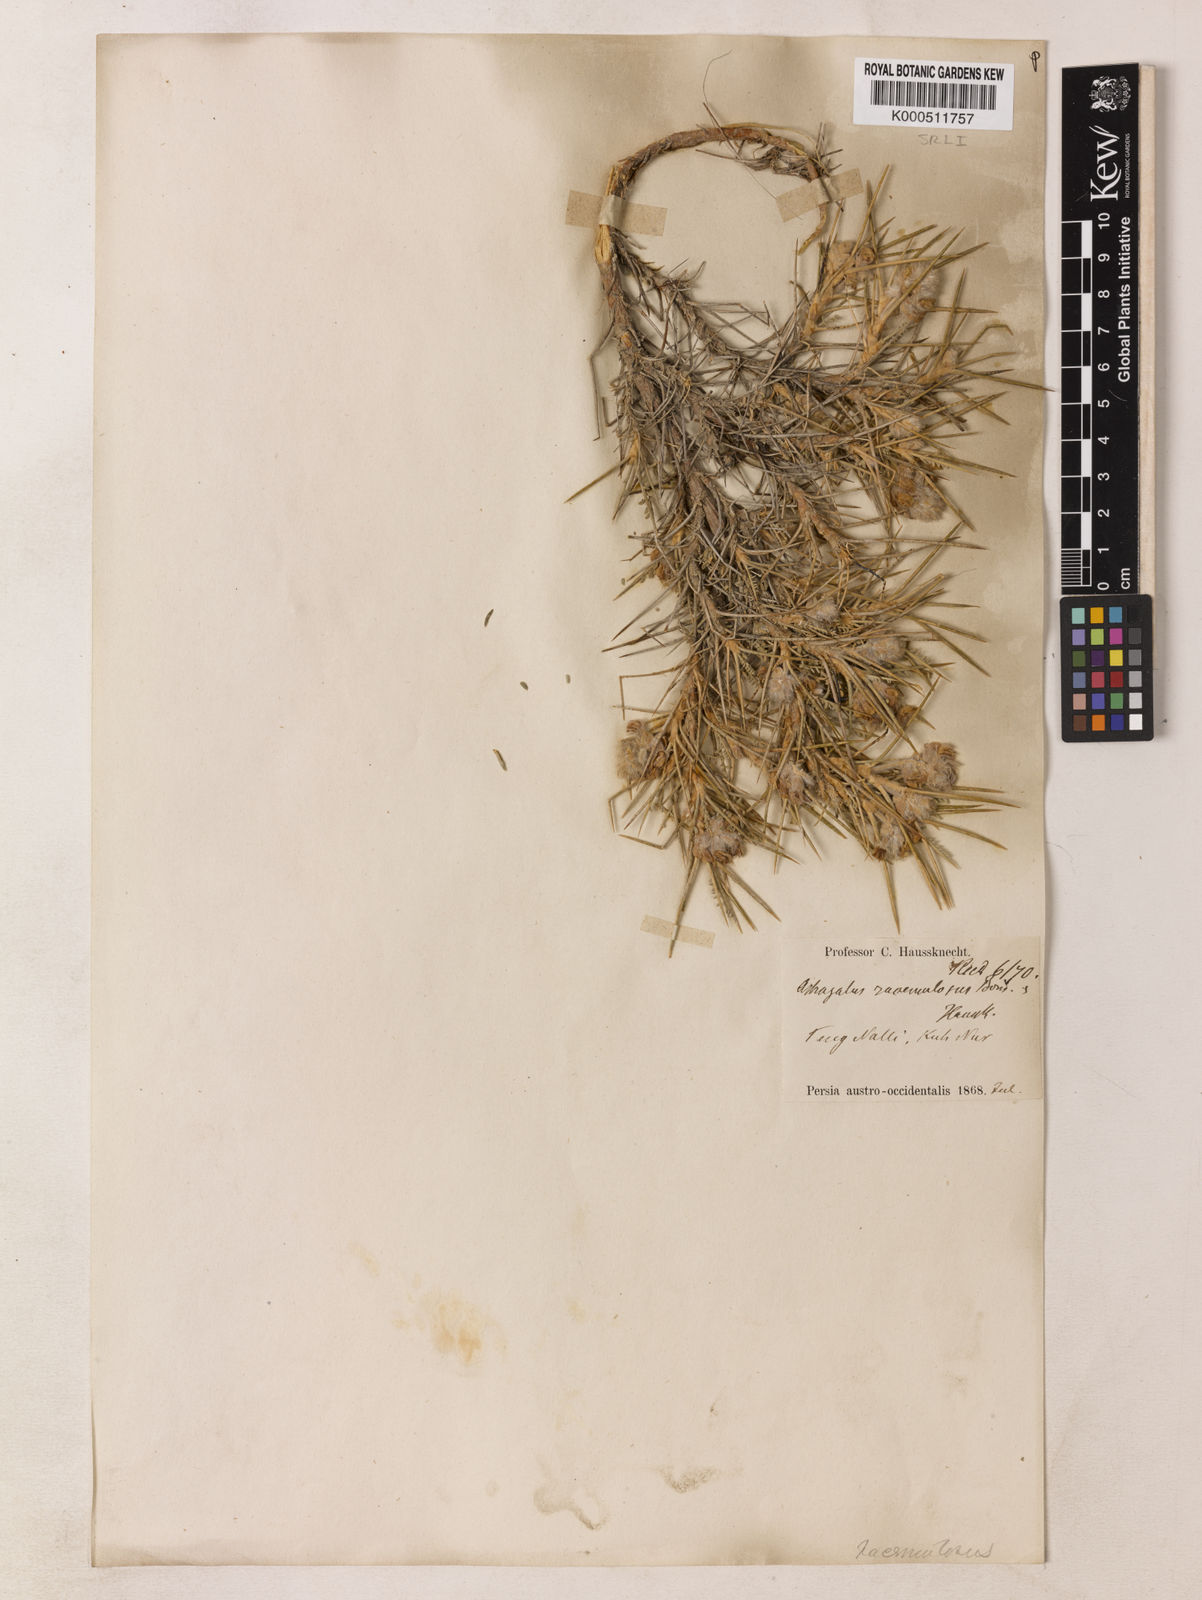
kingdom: Plantae
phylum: Tracheophyta
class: Magnoliopsida
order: Fabales
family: Fabaceae
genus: Astragalus
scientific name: Astragalus ecbatanus
